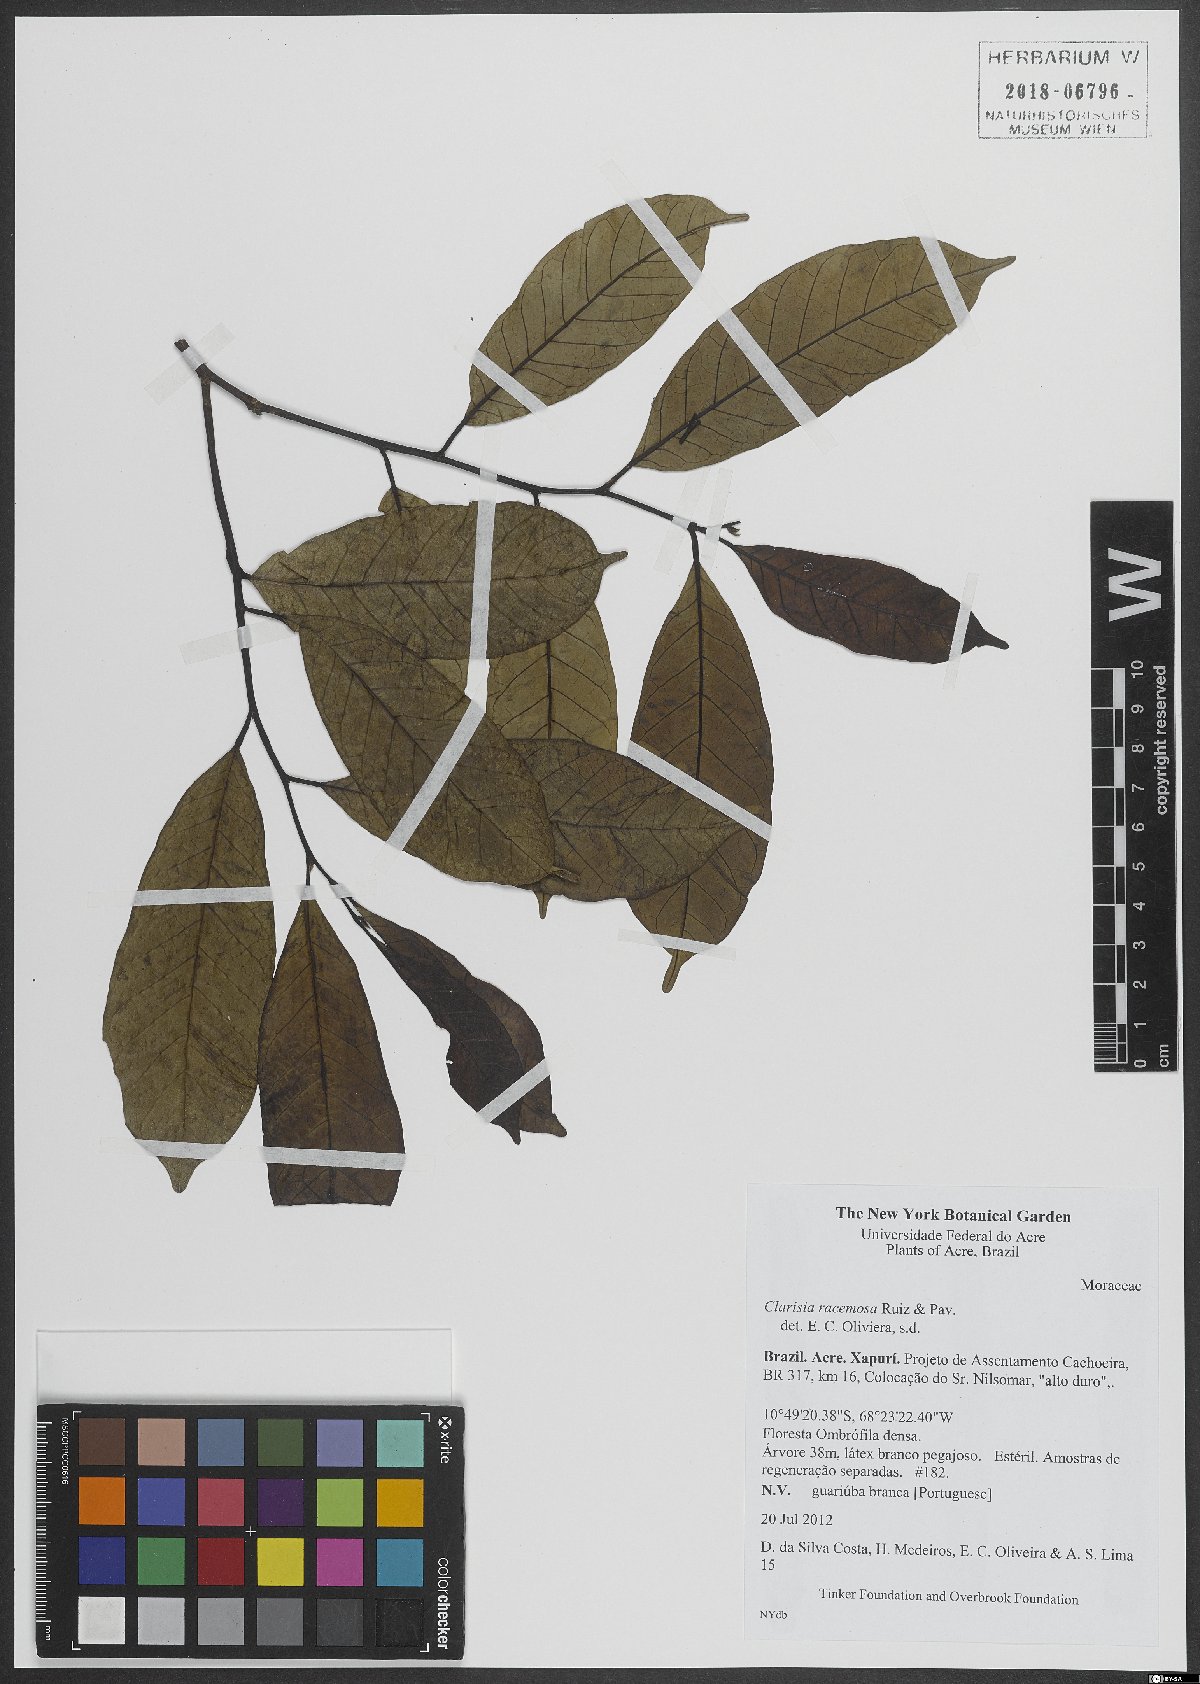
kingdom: Plantae
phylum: Tracheophyta
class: Magnoliopsida
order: Rosales
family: Moraceae
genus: Clarisia
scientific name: Clarisia racemosa
